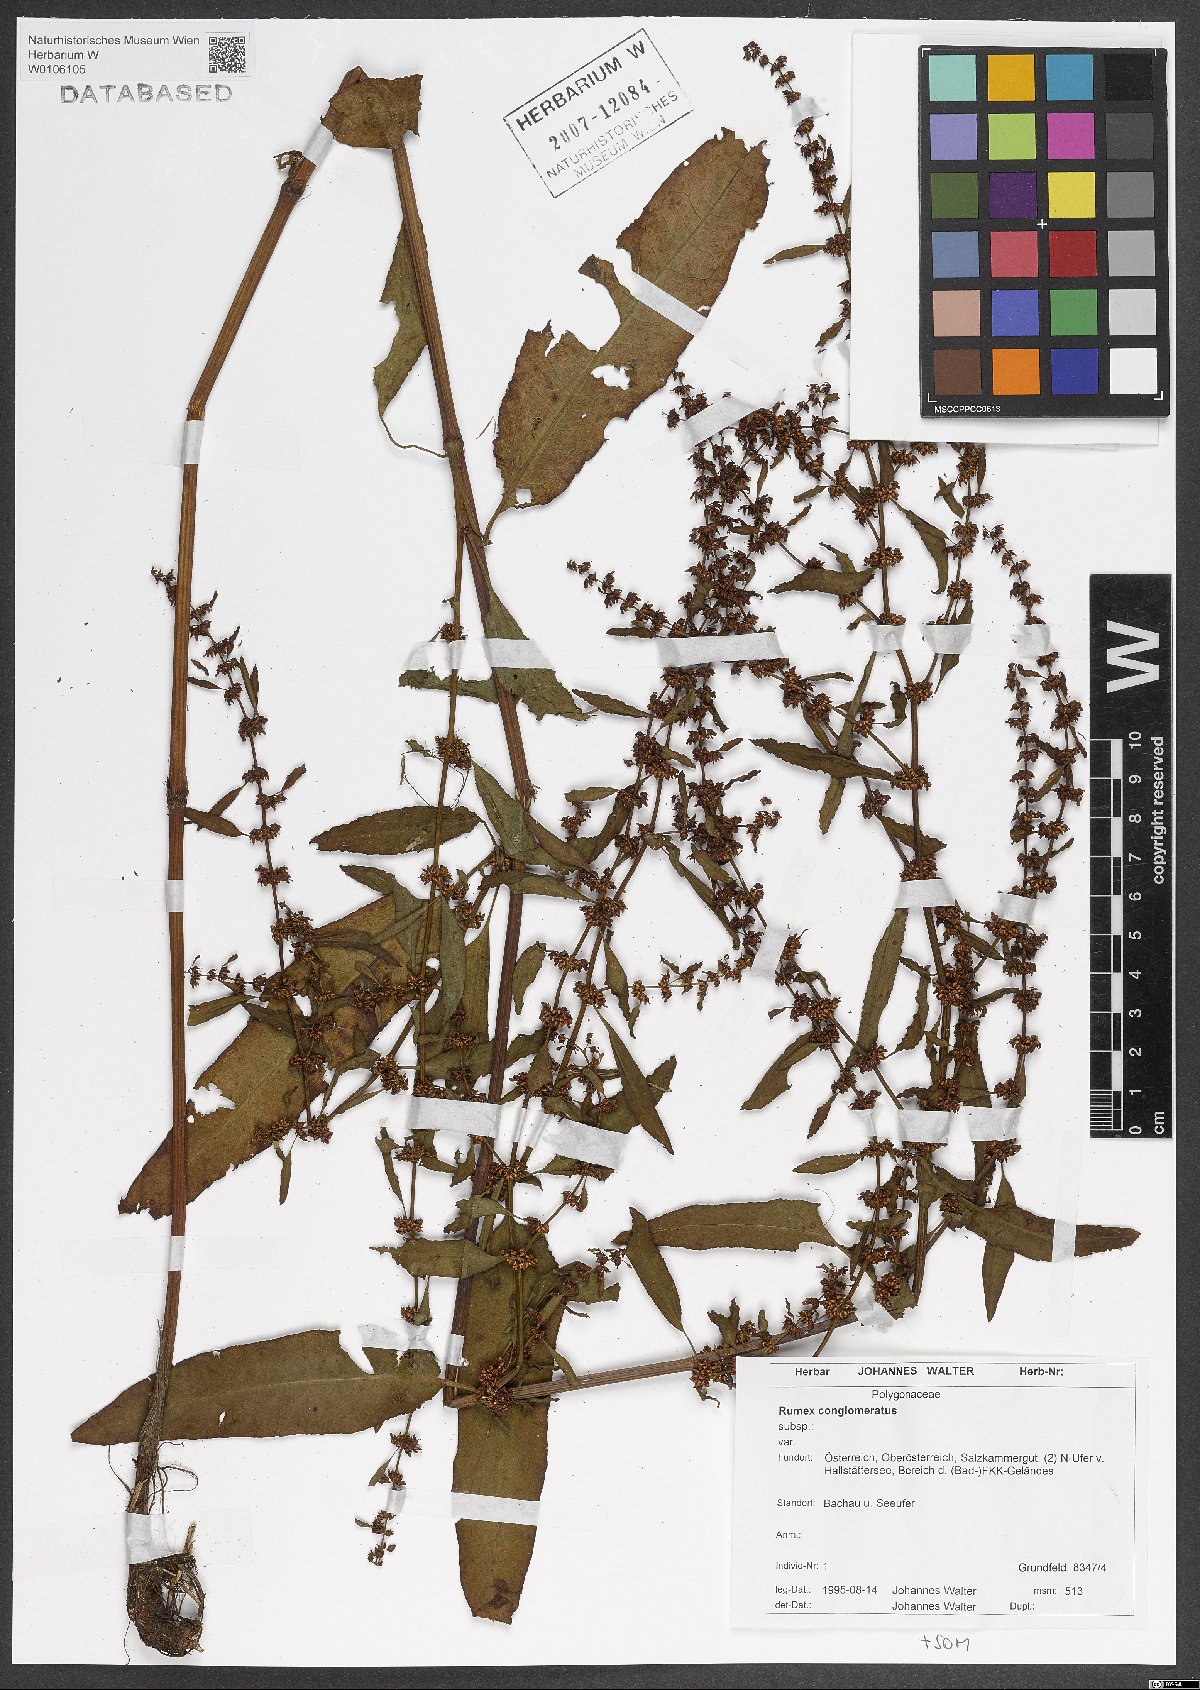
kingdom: Plantae
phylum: Tracheophyta
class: Magnoliopsida
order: Caryophyllales
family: Polygonaceae
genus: Rumex
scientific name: Rumex conglomeratus
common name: Clustered dock
